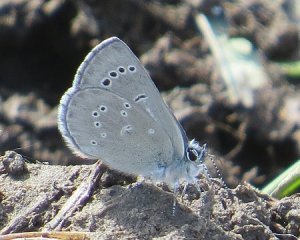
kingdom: Animalia
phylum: Arthropoda
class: Insecta
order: Lepidoptera
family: Lycaenidae
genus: Glaucopsyche
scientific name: Glaucopsyche lygdamus
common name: Silvery Blue
